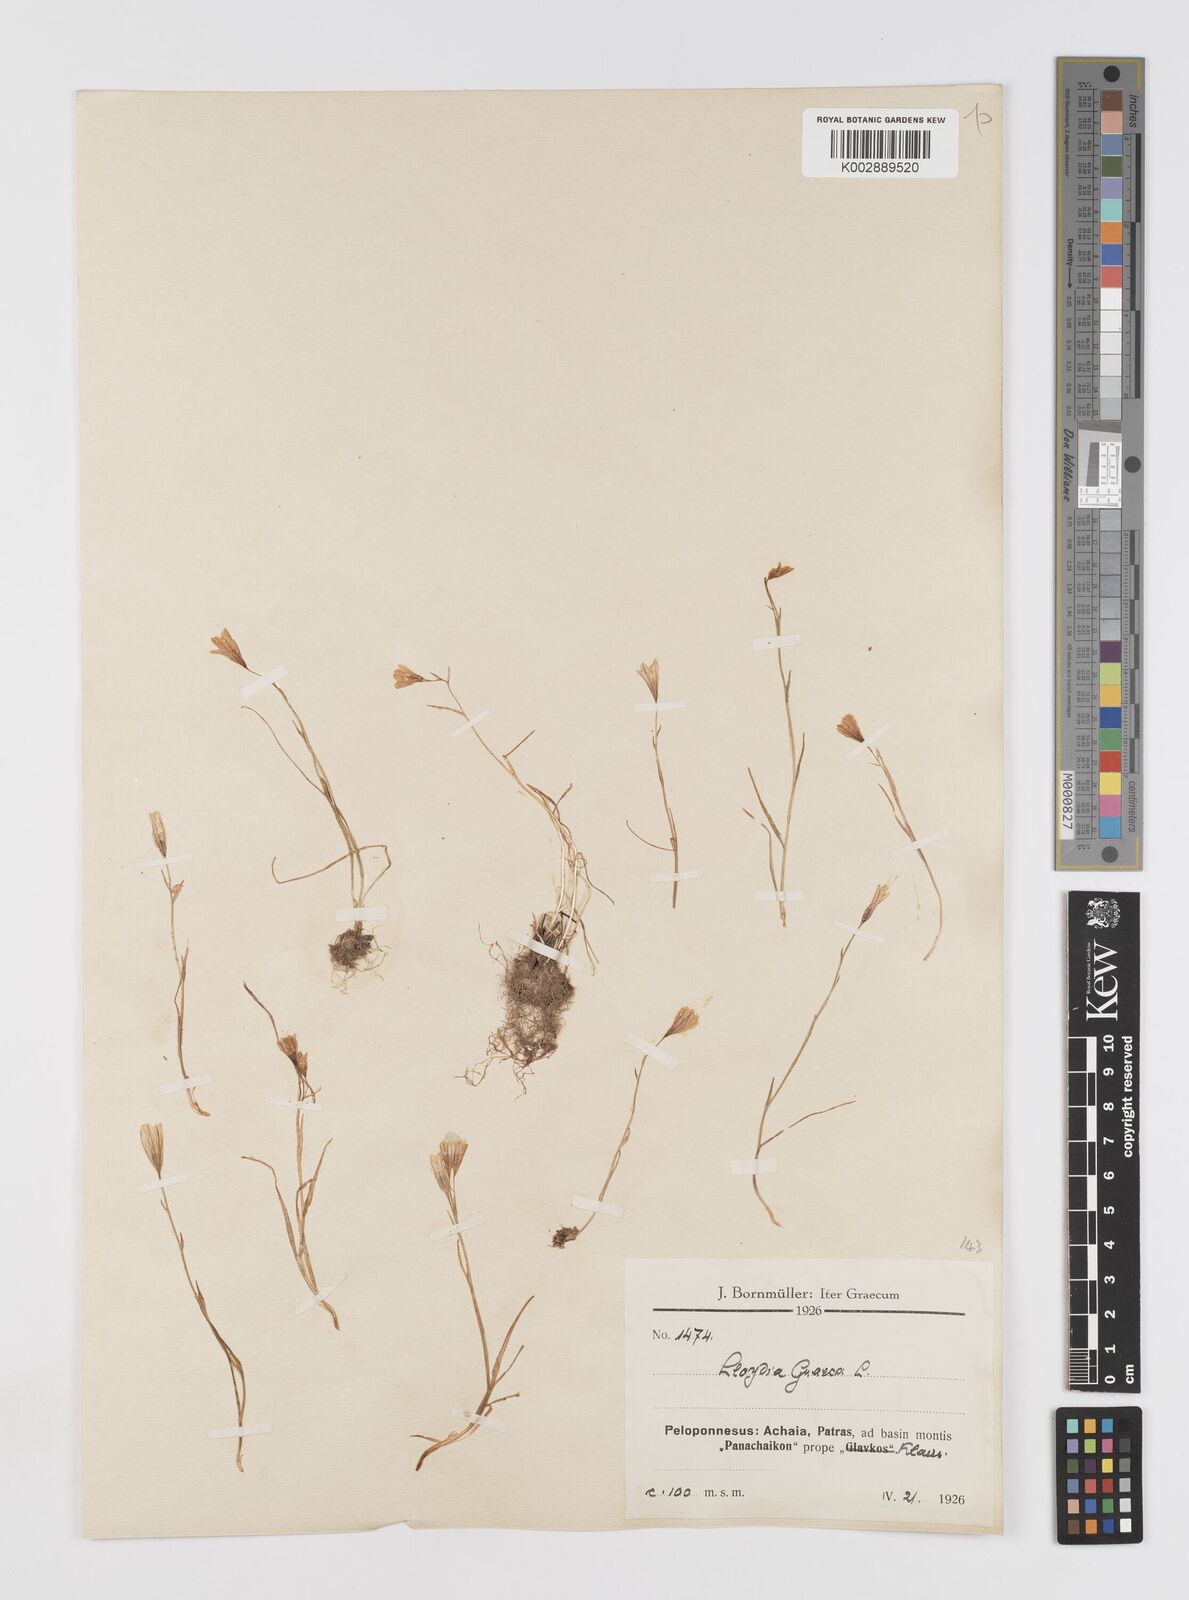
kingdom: Plantae
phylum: Tracheophyta
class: Liliopsida
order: Liliales
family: Liliaceae
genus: Gagea
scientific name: Gagea graeca
